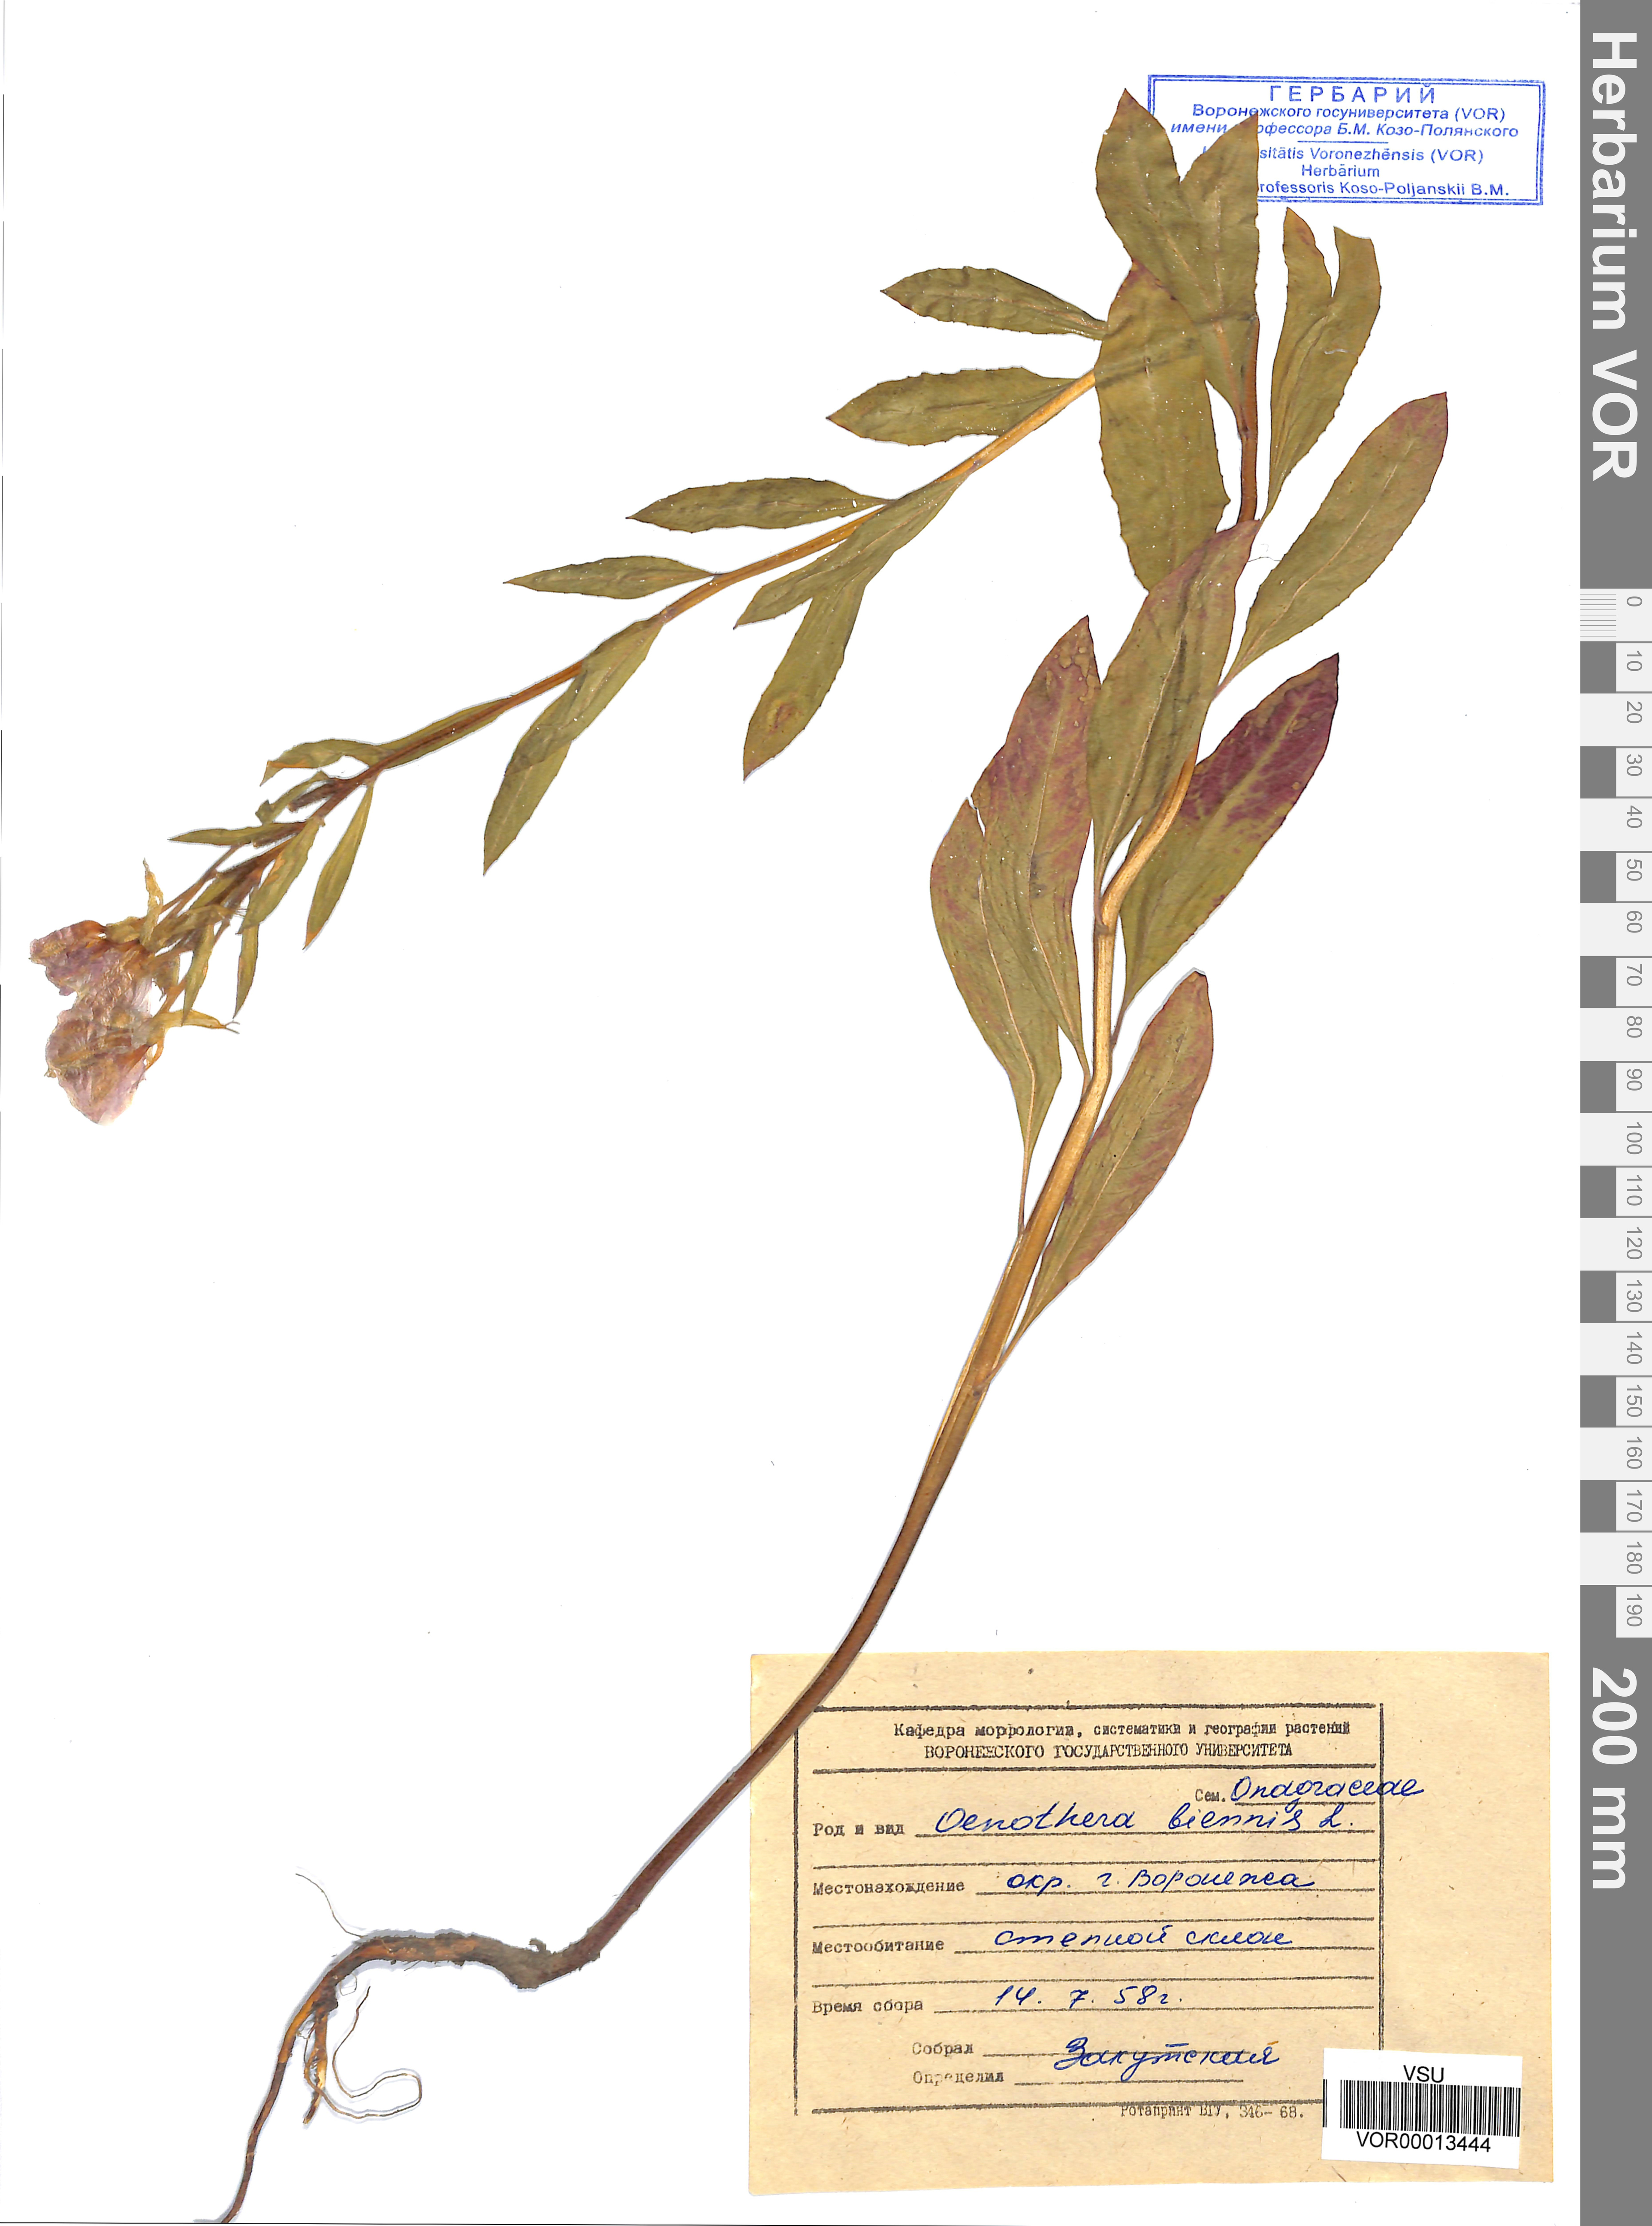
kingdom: Plantae
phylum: Tracheophyta
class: Magnoliopsida
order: Myrtales
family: Onagraceae
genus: Oenothera
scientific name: Oenothera biennis
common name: Common evening-primrose
